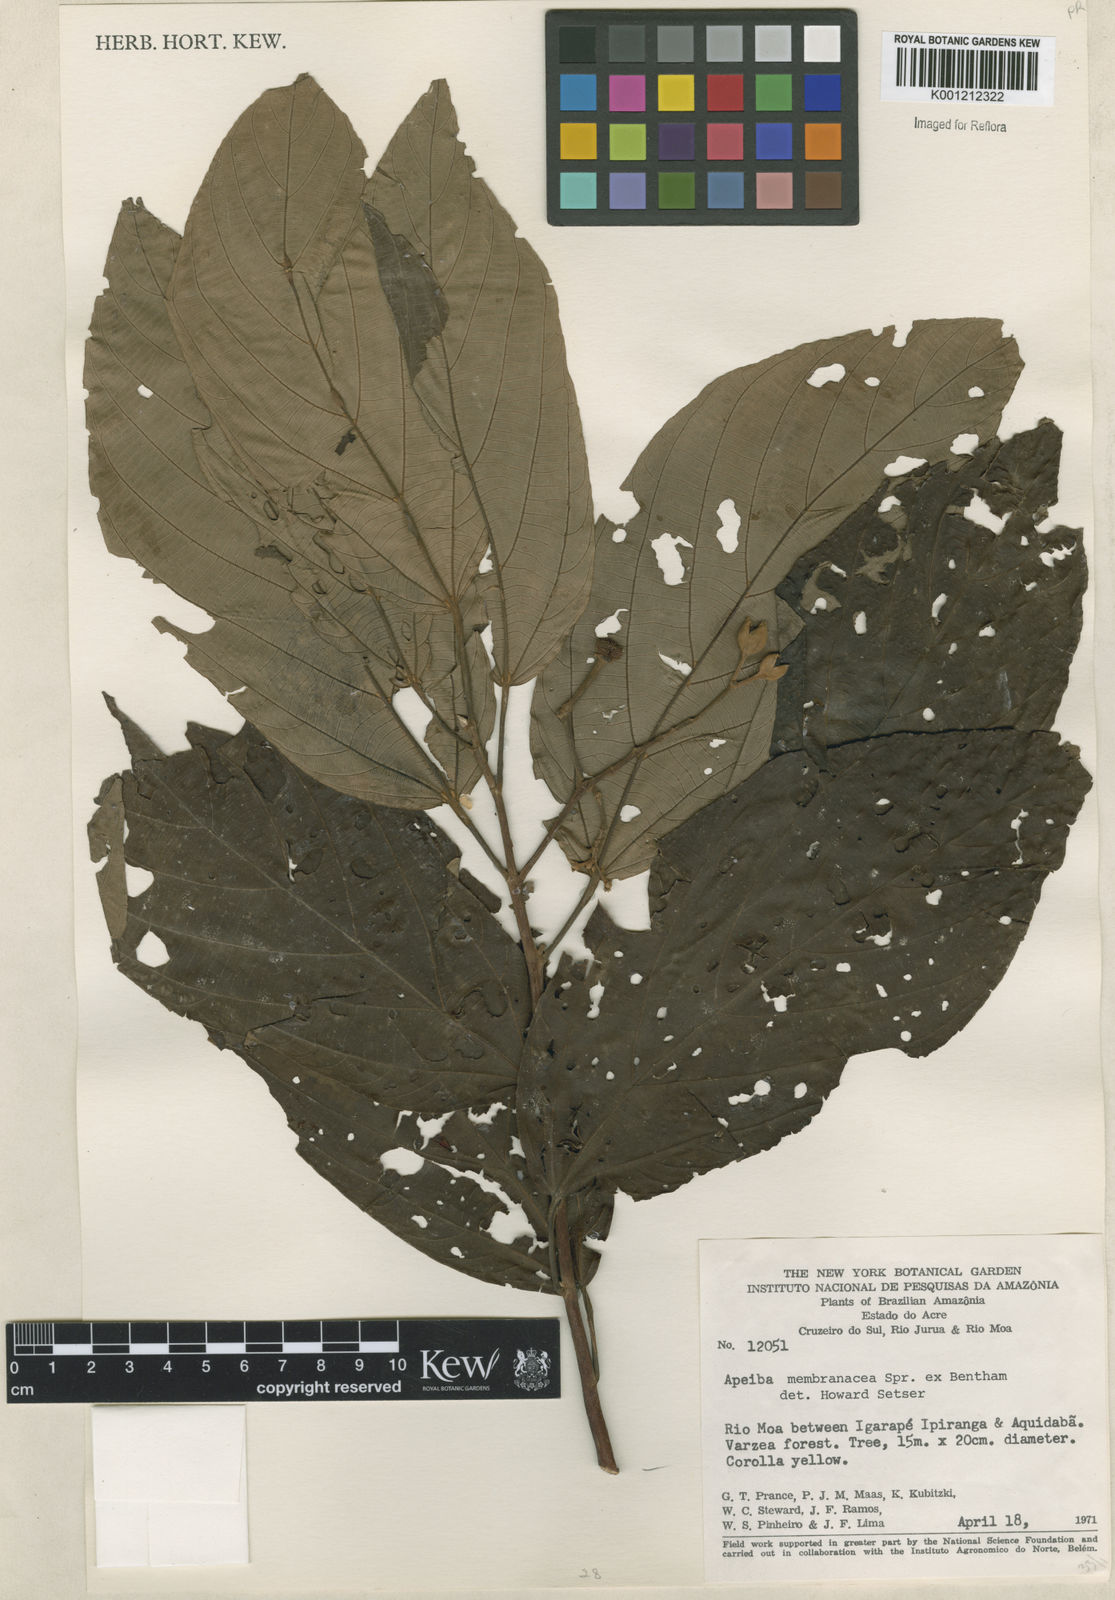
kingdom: Plantae
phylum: Tracheophyta
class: Magnoliopsida
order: Malvales
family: Malvaceae
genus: Apeiba
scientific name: Apeiba membranacea
